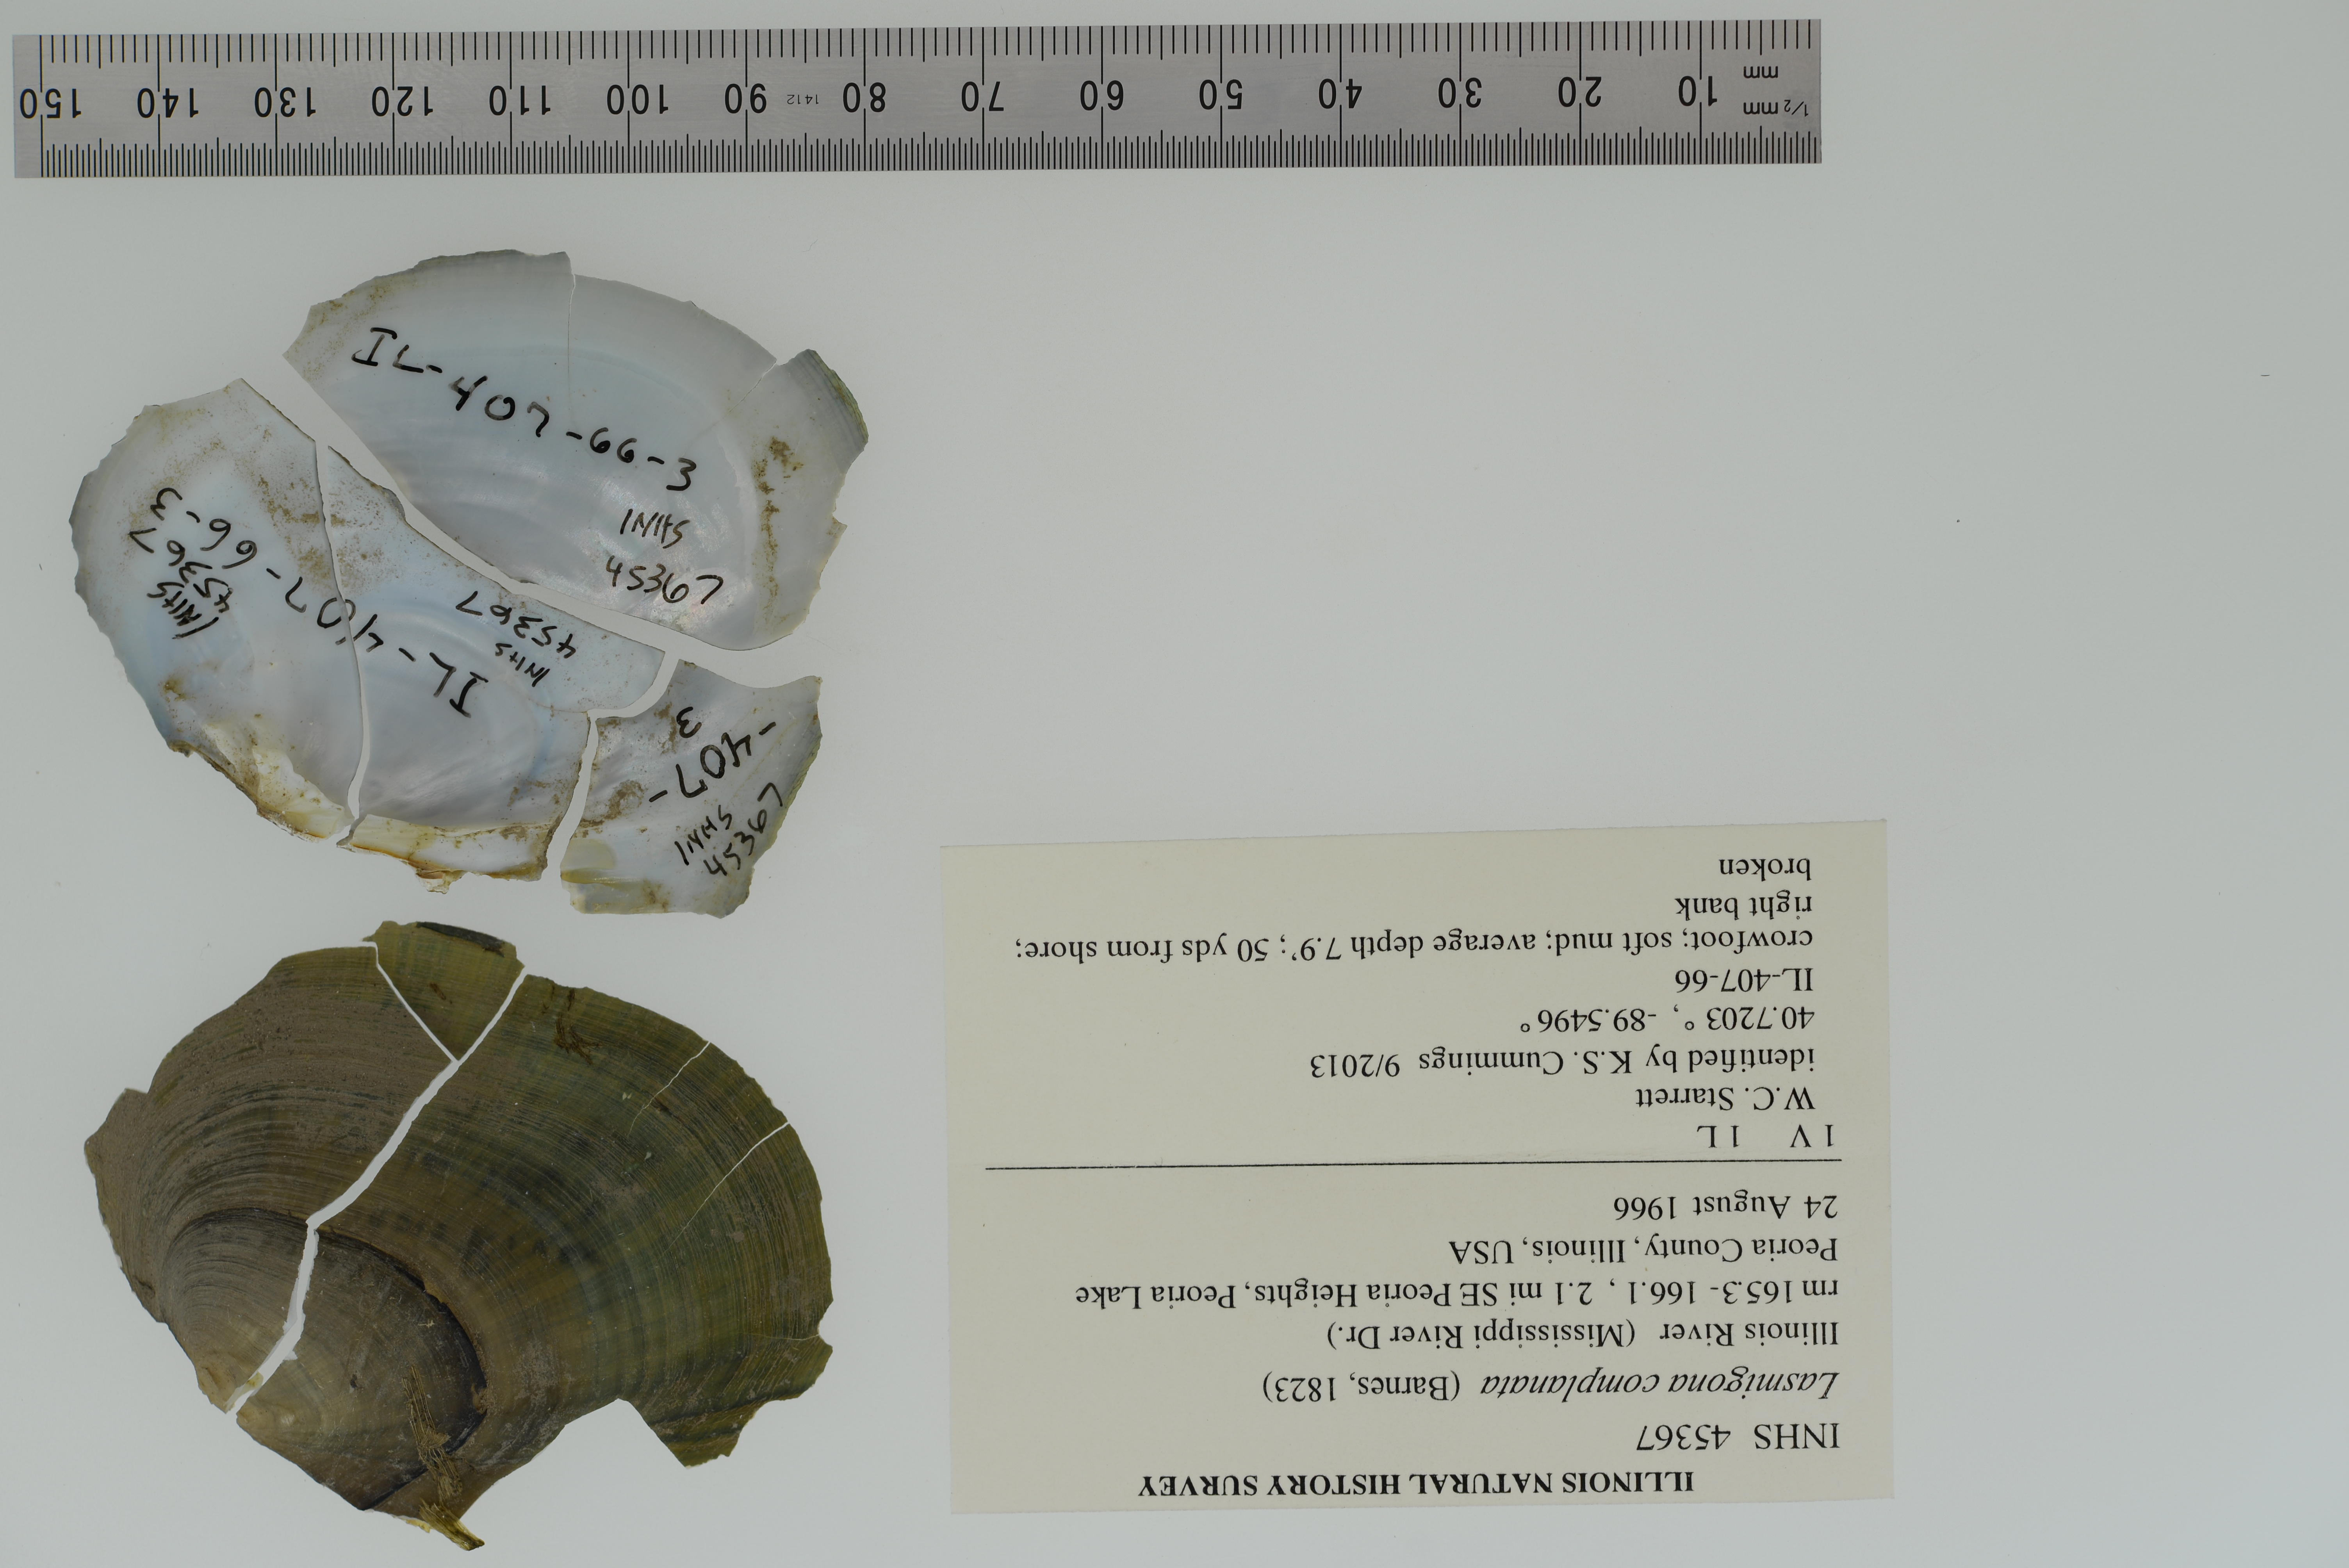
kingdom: Animalia
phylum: Mollusca
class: Bivalvia
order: Unionida
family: Unionidae
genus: Lasmigona
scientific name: Lasmigona complanata
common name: White heelsplitter
